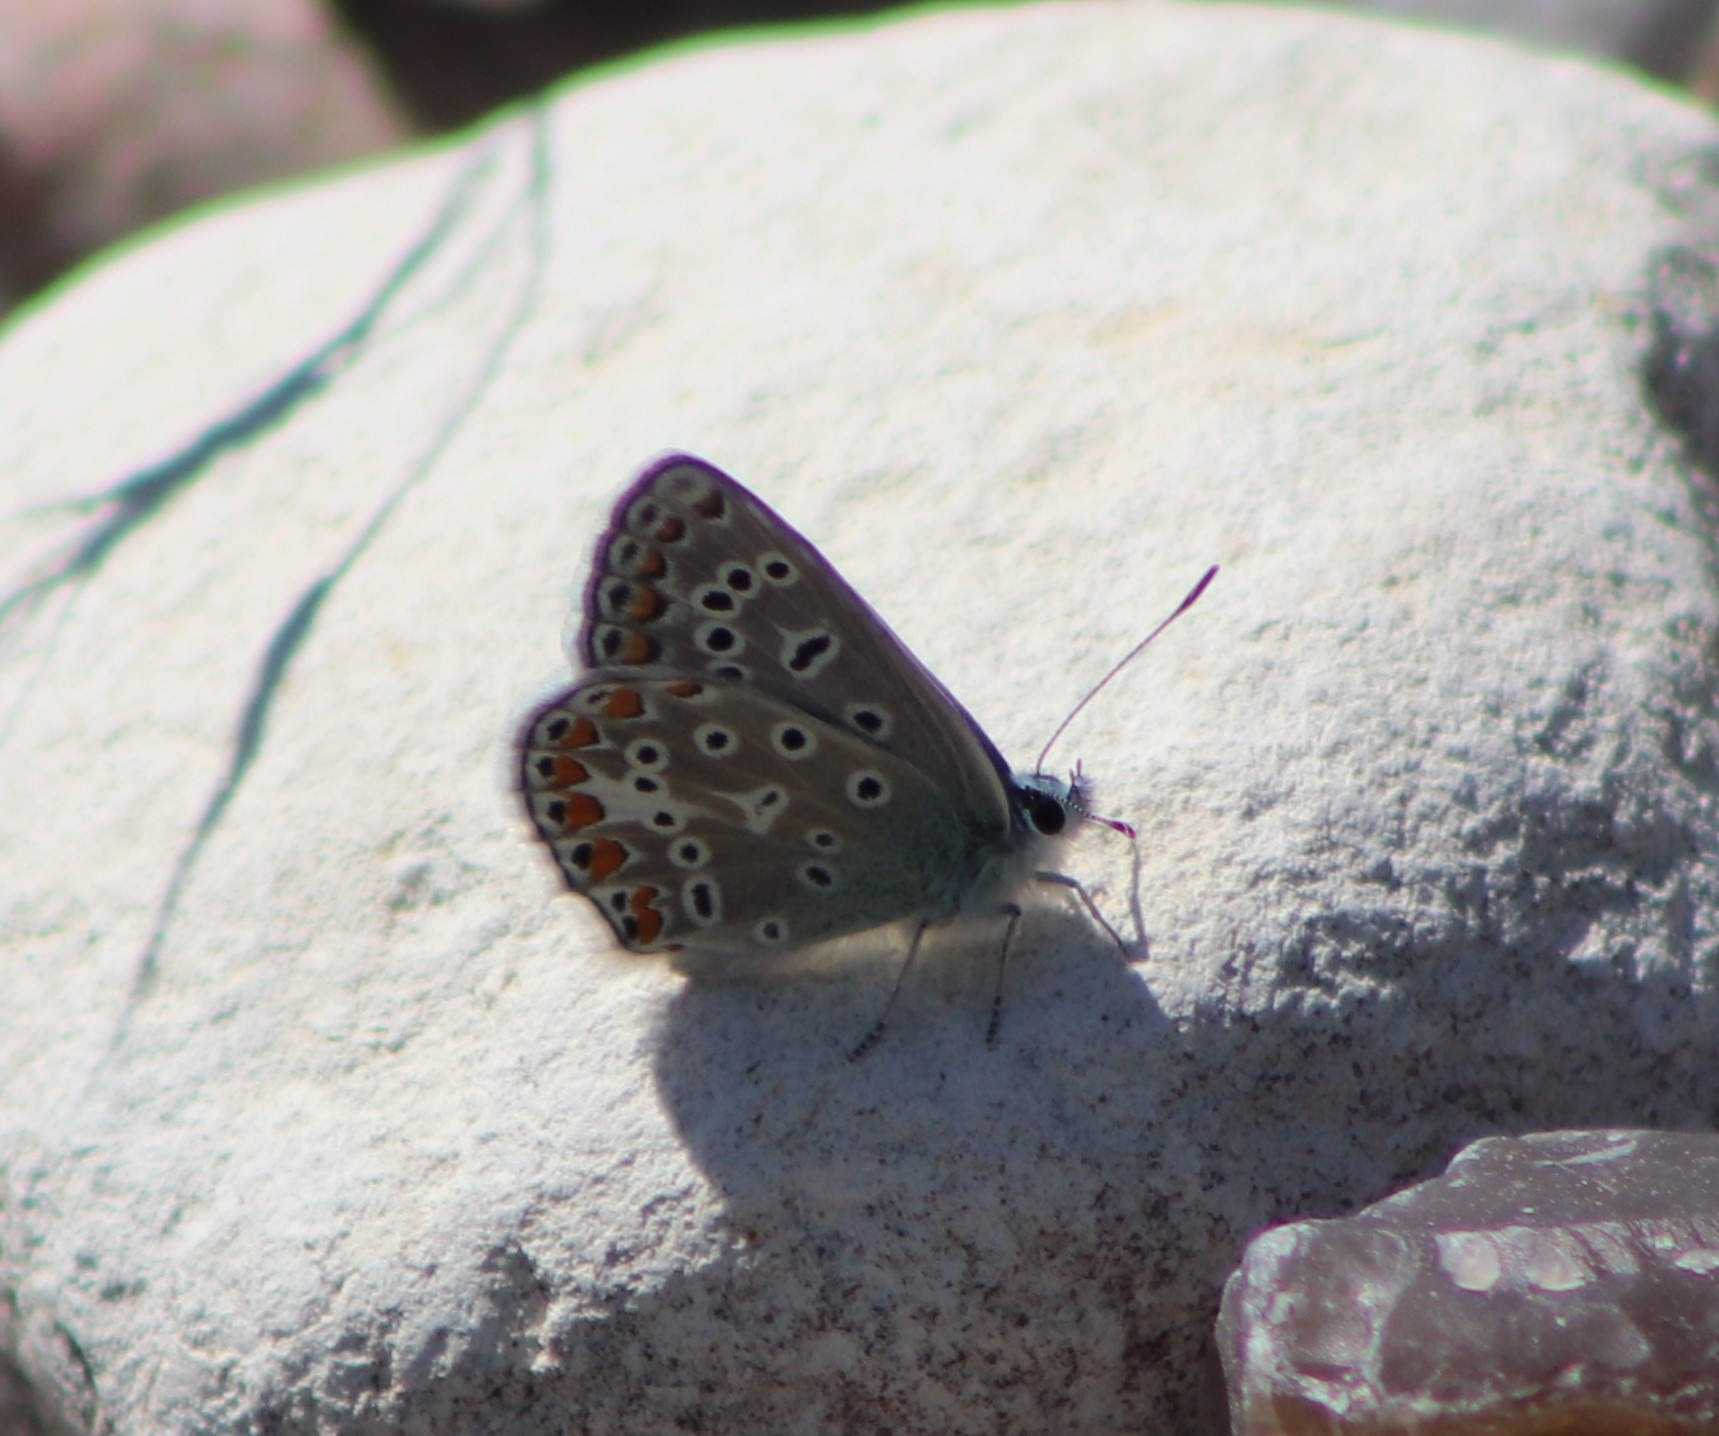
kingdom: Animalia
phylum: Arthropoda
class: Insecta
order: Lepidoptera
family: Lycaenidae
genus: Polyommatus
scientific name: Polyommatus icarus
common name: Almindelig blåfugl
